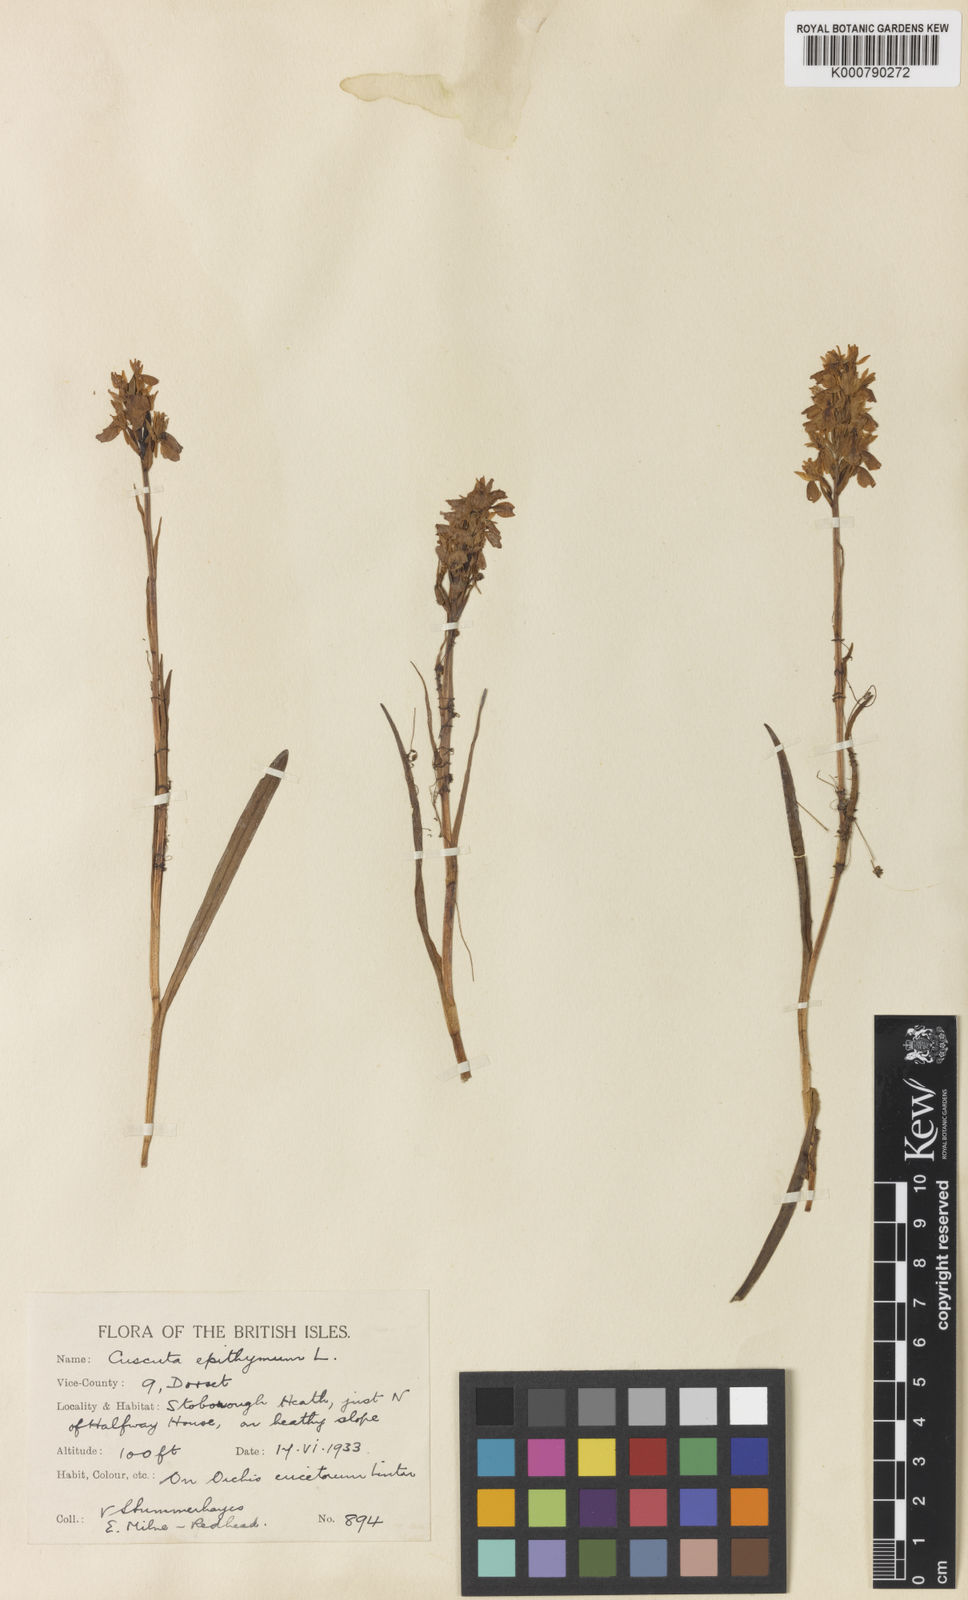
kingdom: Plantae
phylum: Tracheophyta
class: Magnoliopsida
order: Solanales
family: Convolvulaceae
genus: Cuscuta
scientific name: Cuscuta epithymum
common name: Clover dodder
